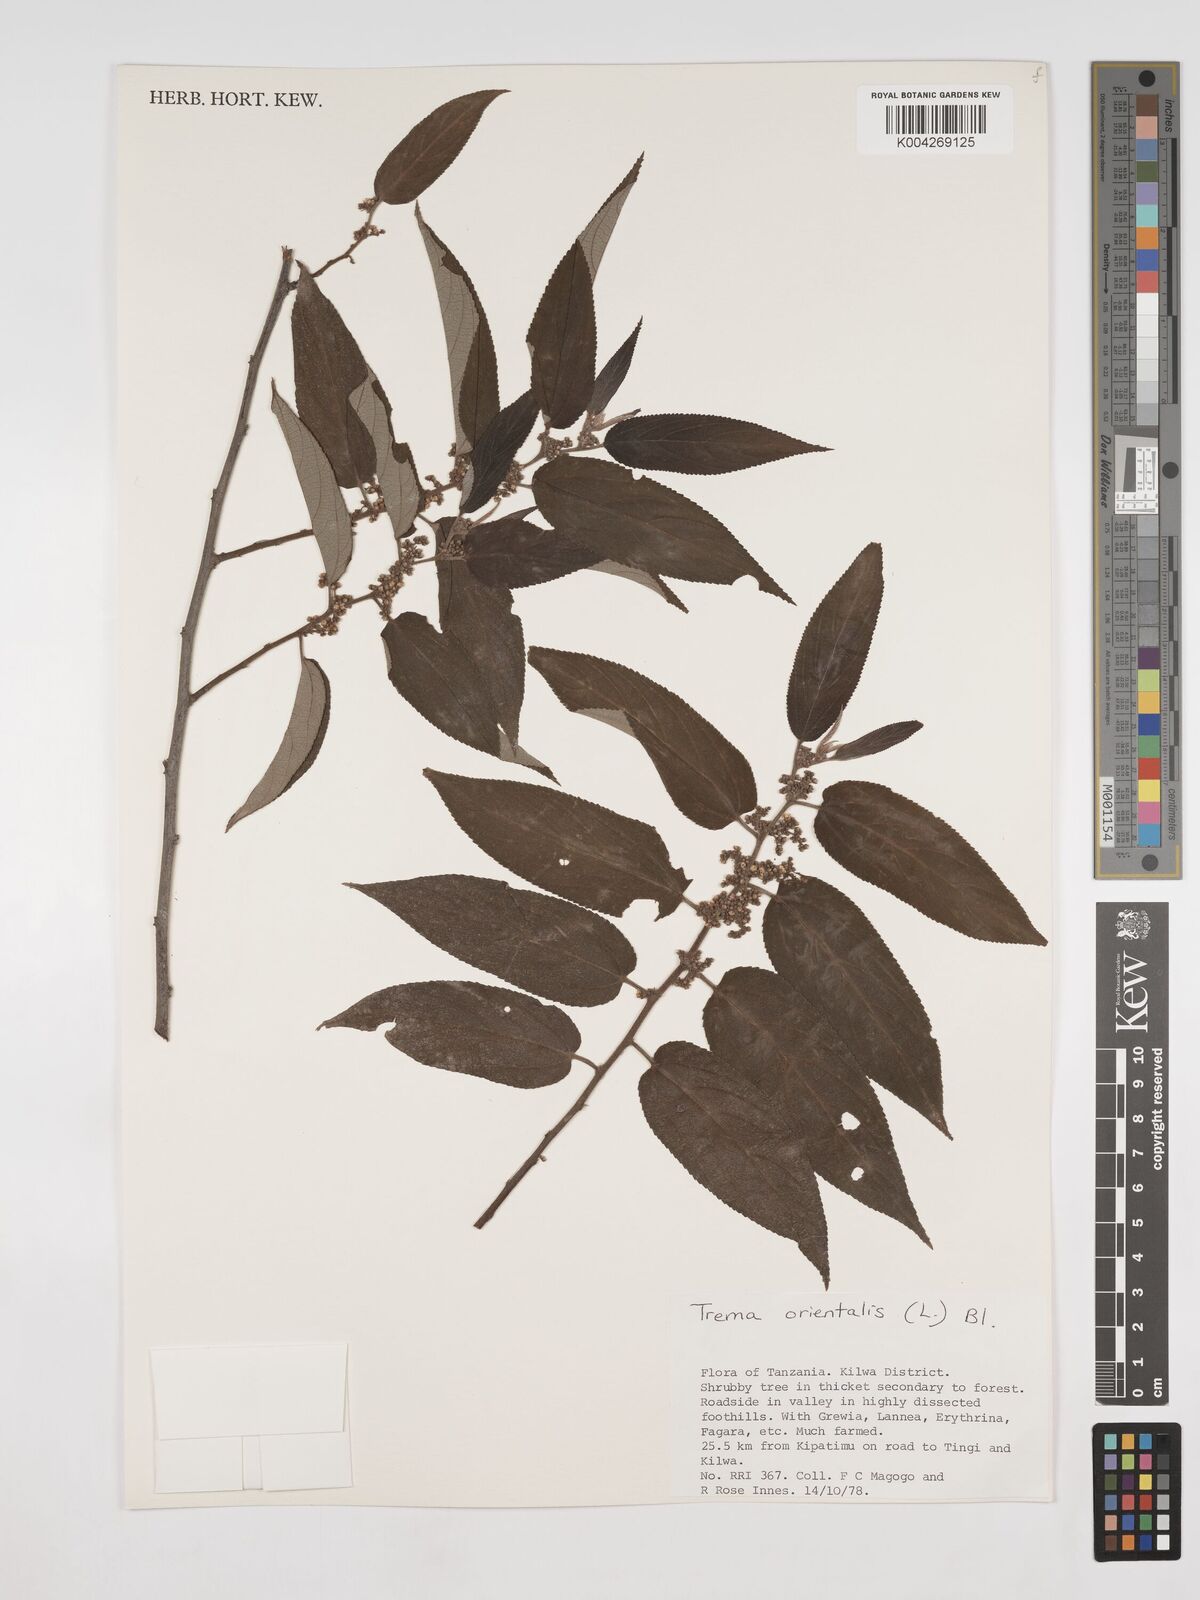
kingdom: Plantae
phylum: Tracheophyta
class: Magnoliopsida
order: Rosales
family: Cannabaceae
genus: Trema
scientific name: Trema orientale
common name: Indian charcoal tree
